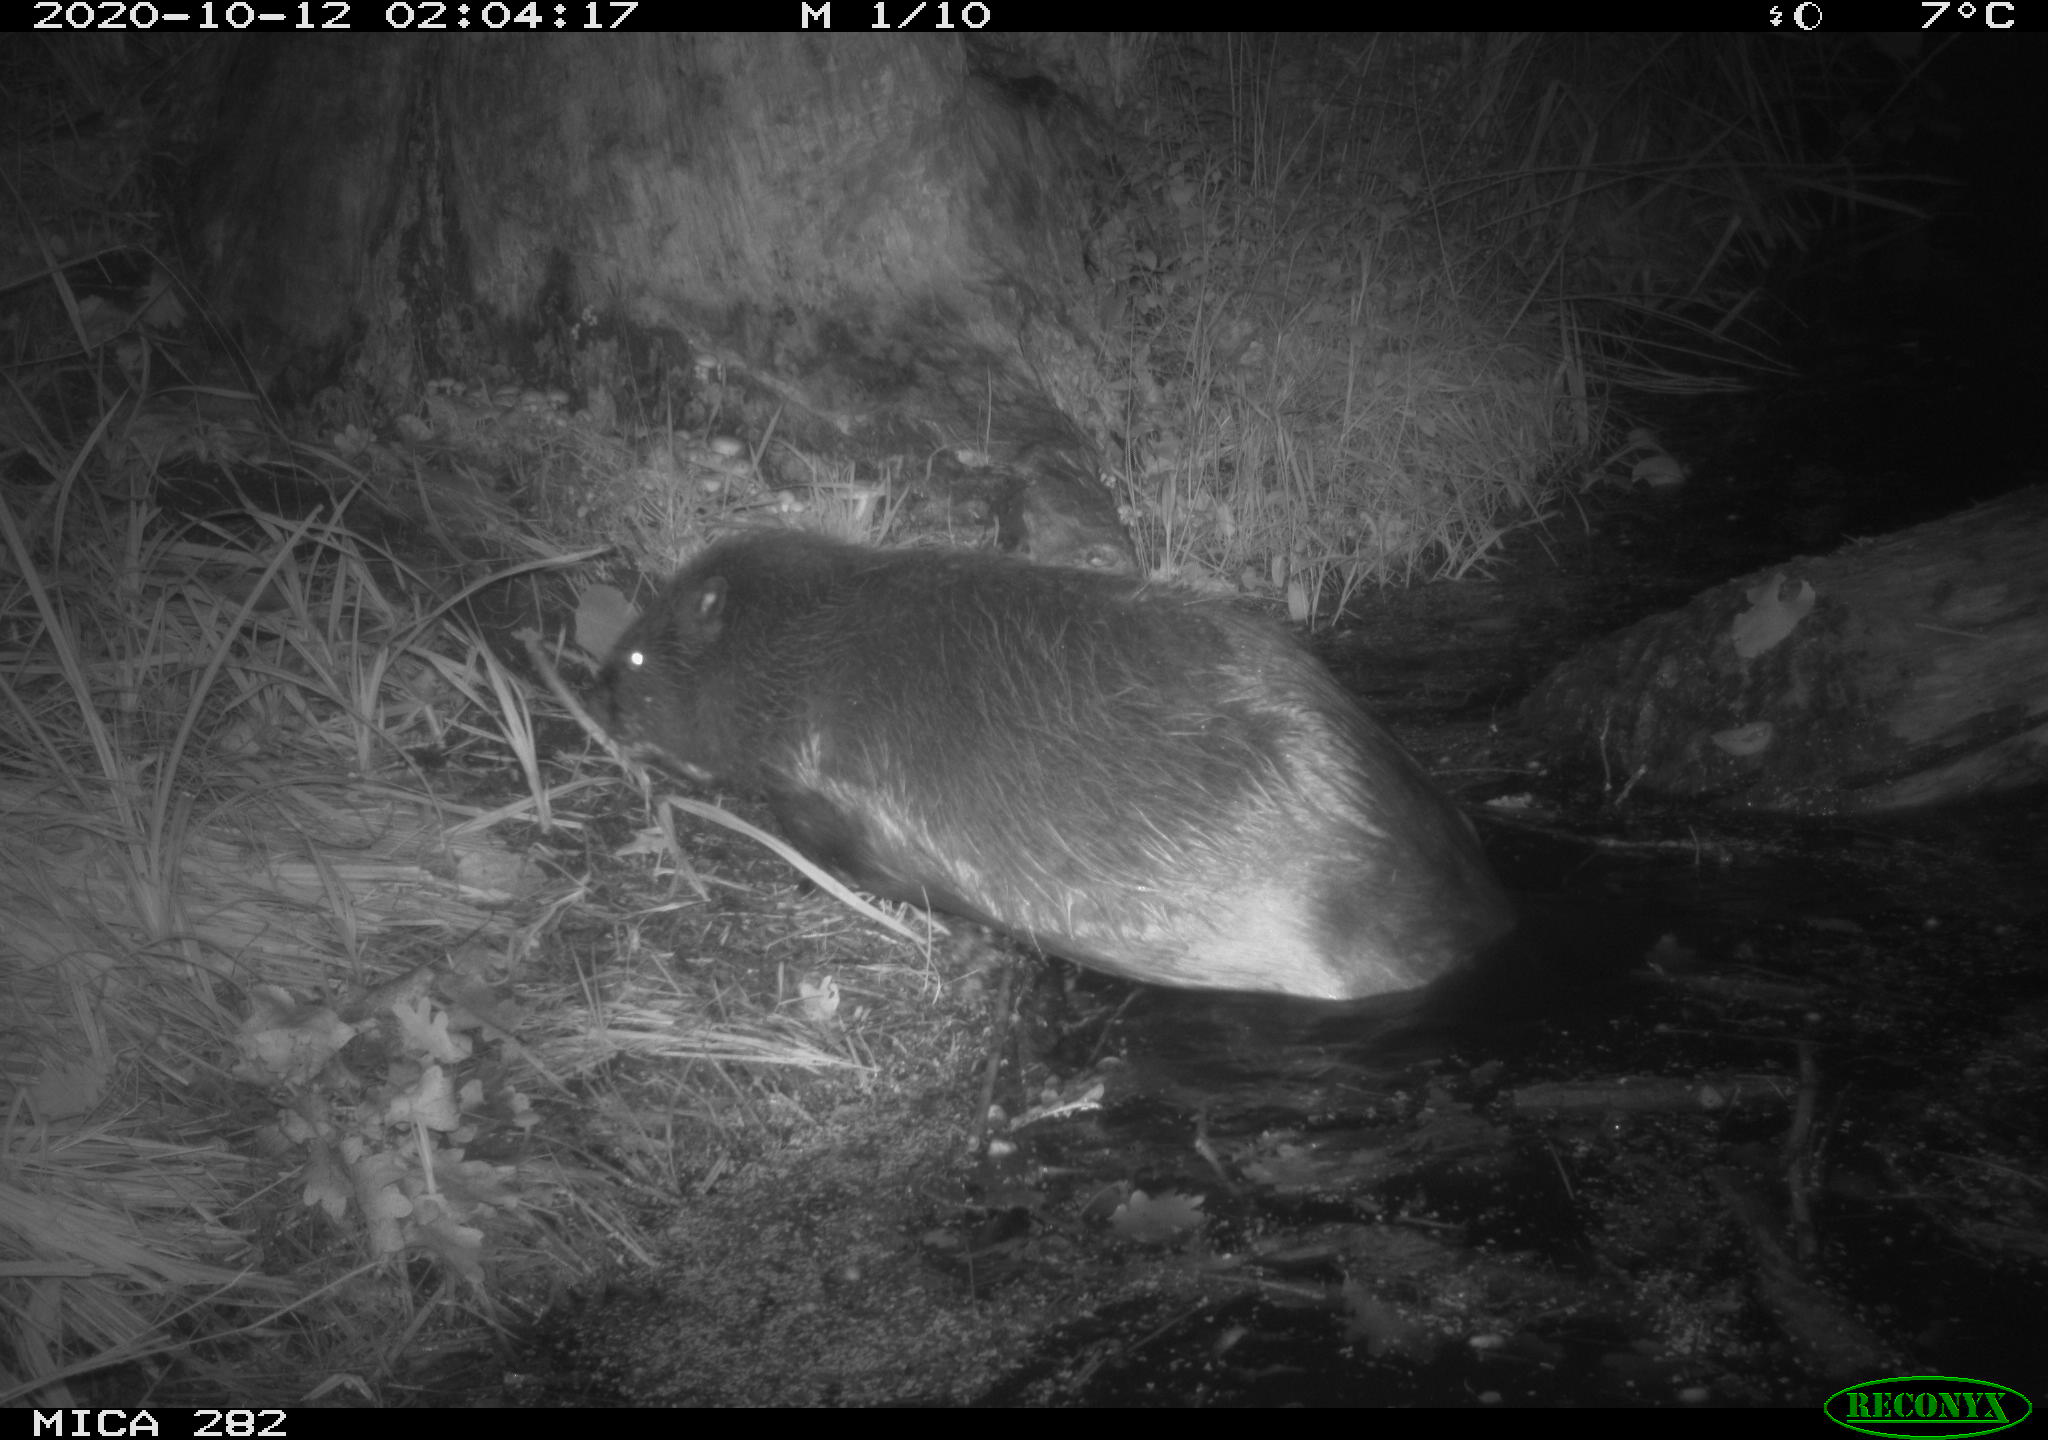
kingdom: Animalia
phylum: Chordata
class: Mammalia
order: Rodentia
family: Castoridae
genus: Castor
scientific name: Castor fiber
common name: Eurasian beaver
